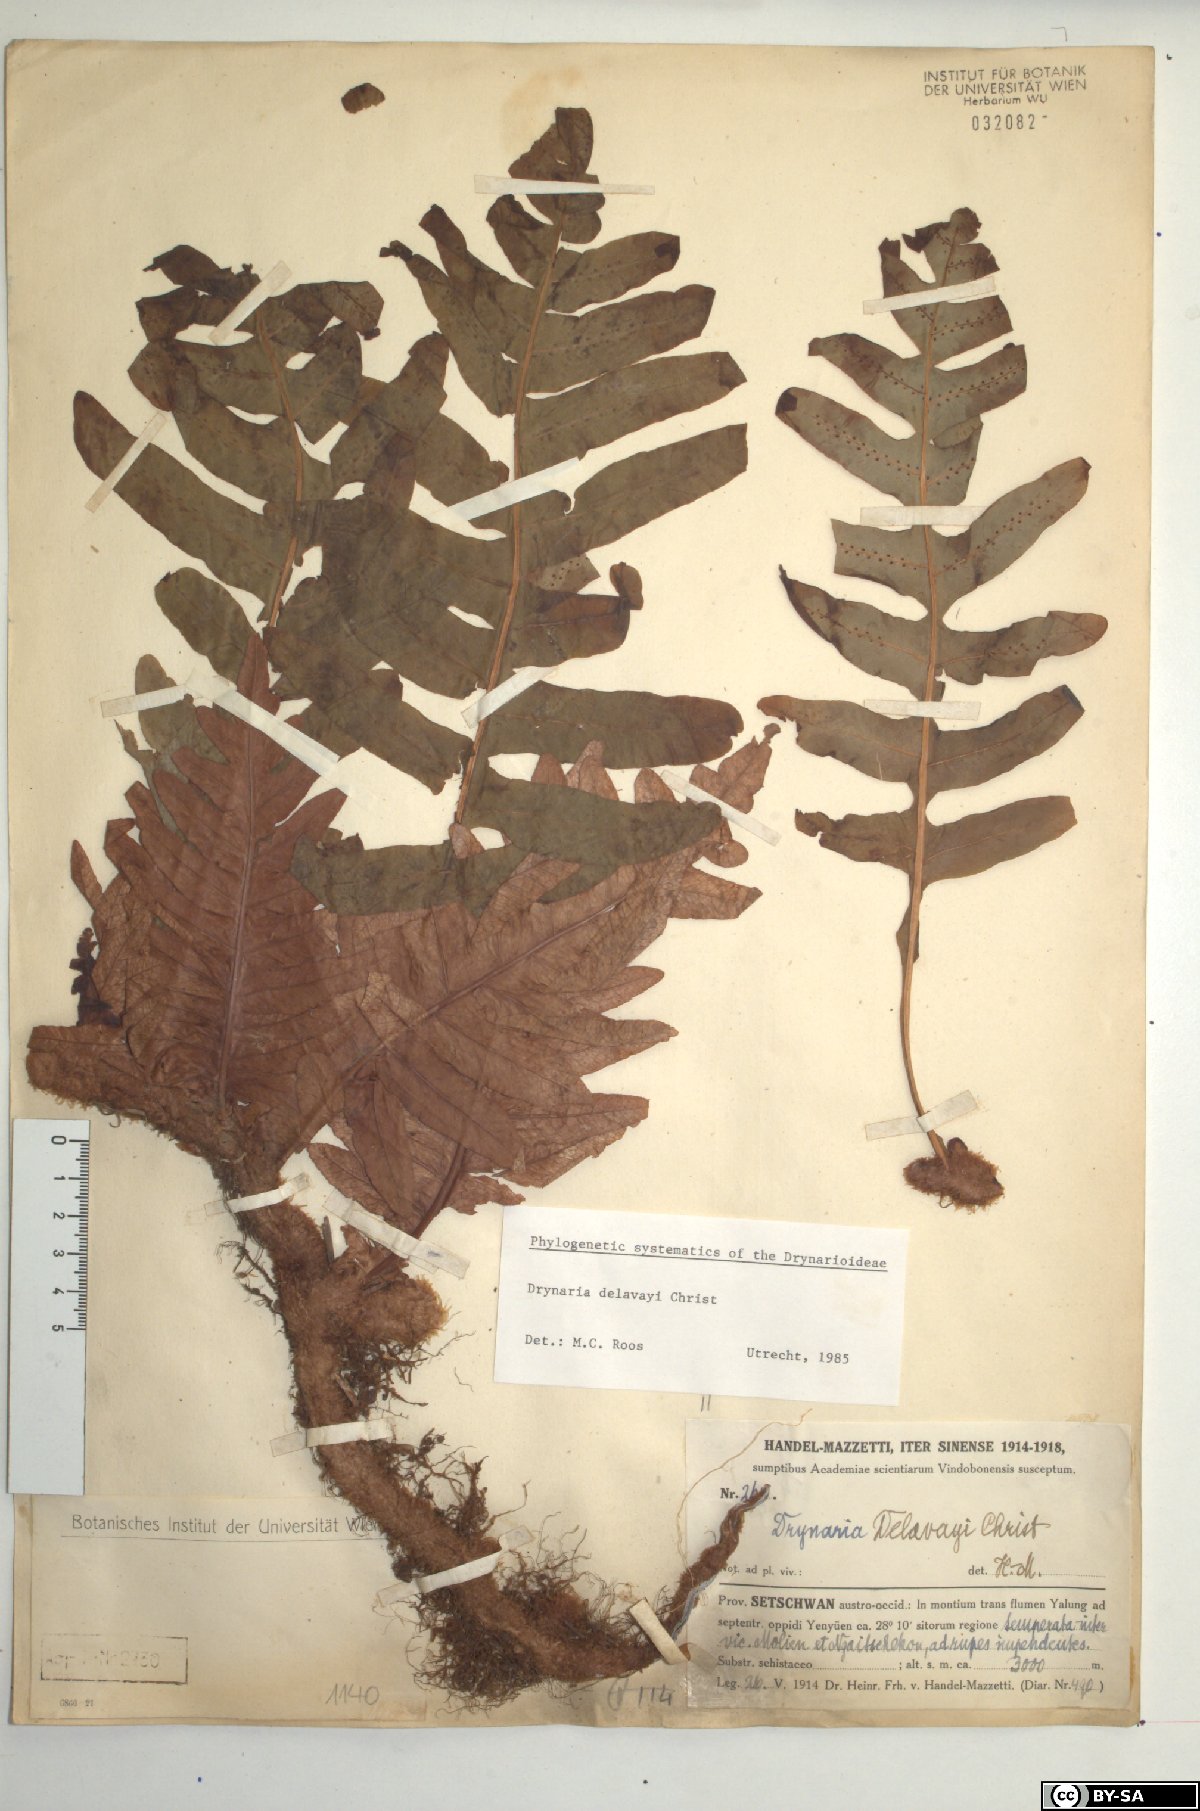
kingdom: Plantae
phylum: Tracheophyta
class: Polypodiopsida
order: Polypodiales
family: Polypodiaceae
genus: Drynaria
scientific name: Drynaria delavayi
